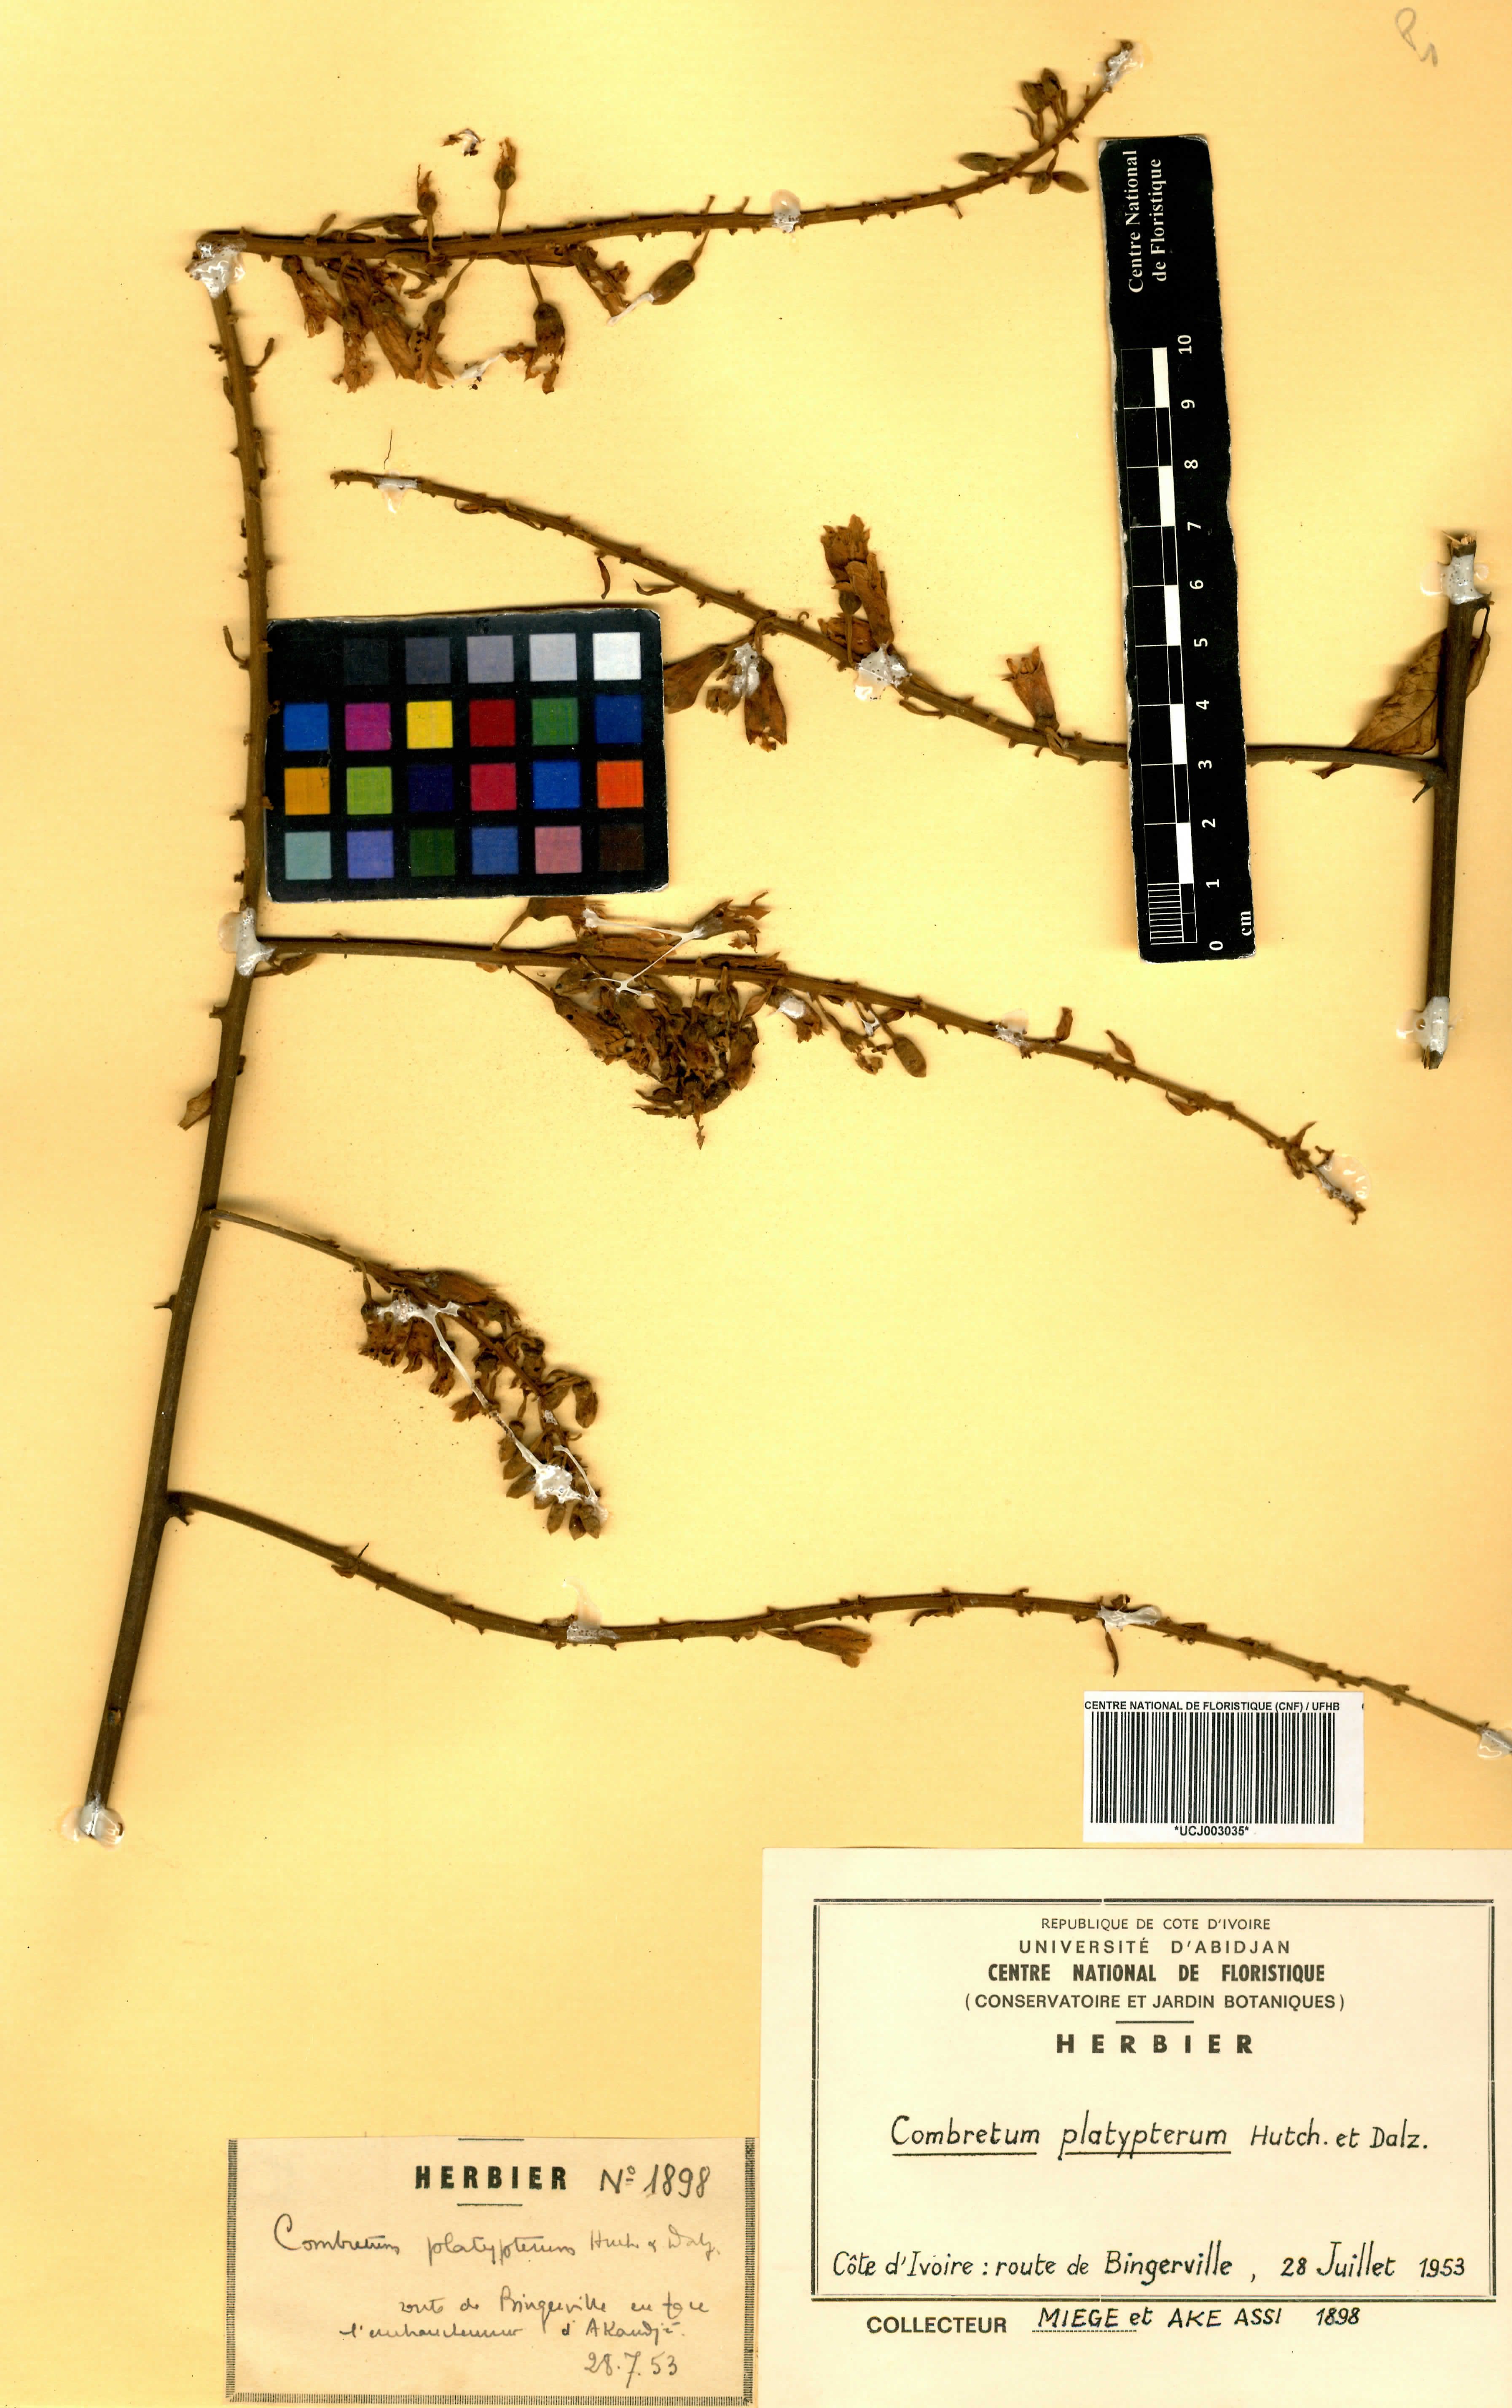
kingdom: Plantae
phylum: Tracheophyta
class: Magnoliopsida
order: Myrtales
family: Combretaceae
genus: Combretum
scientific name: Combretum platypterum
